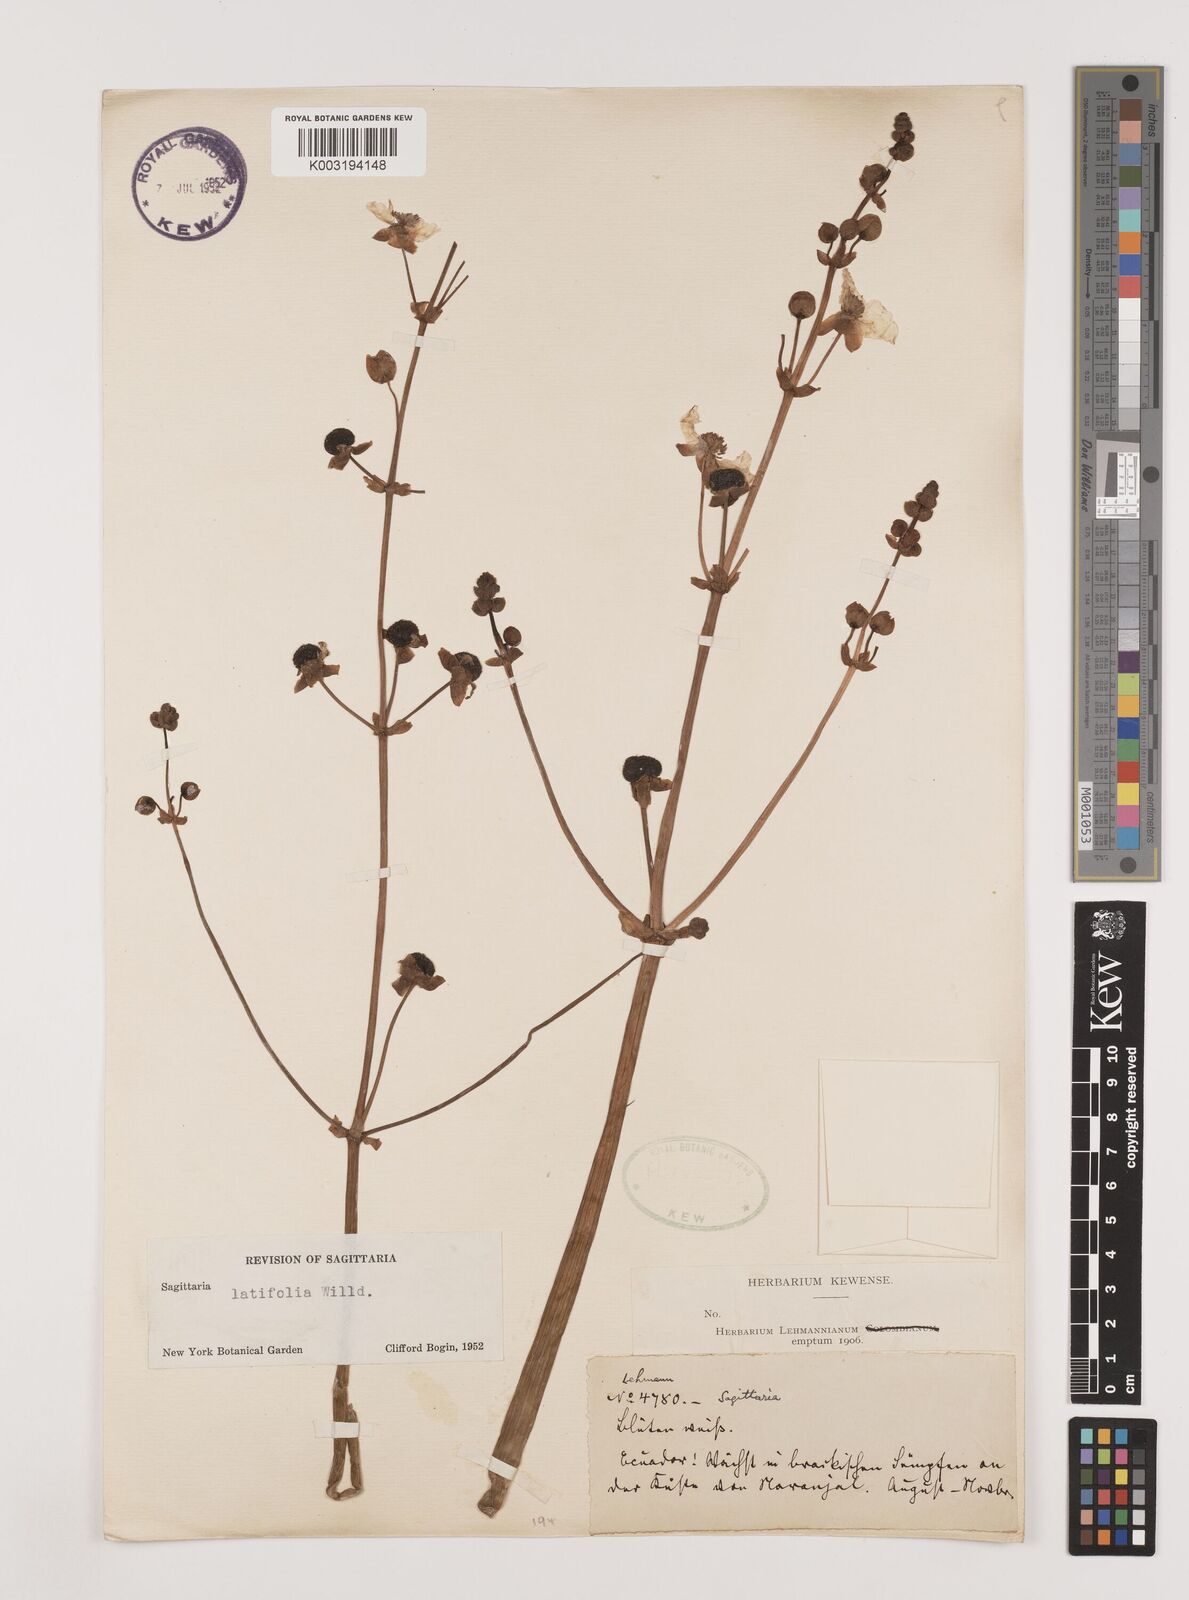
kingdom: Plantae
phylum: Tracheophyta
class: Liliopsida
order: Alismatales
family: Alismataceae
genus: Sagittaria
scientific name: Sagittaria latifolia
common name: Duck-potato
